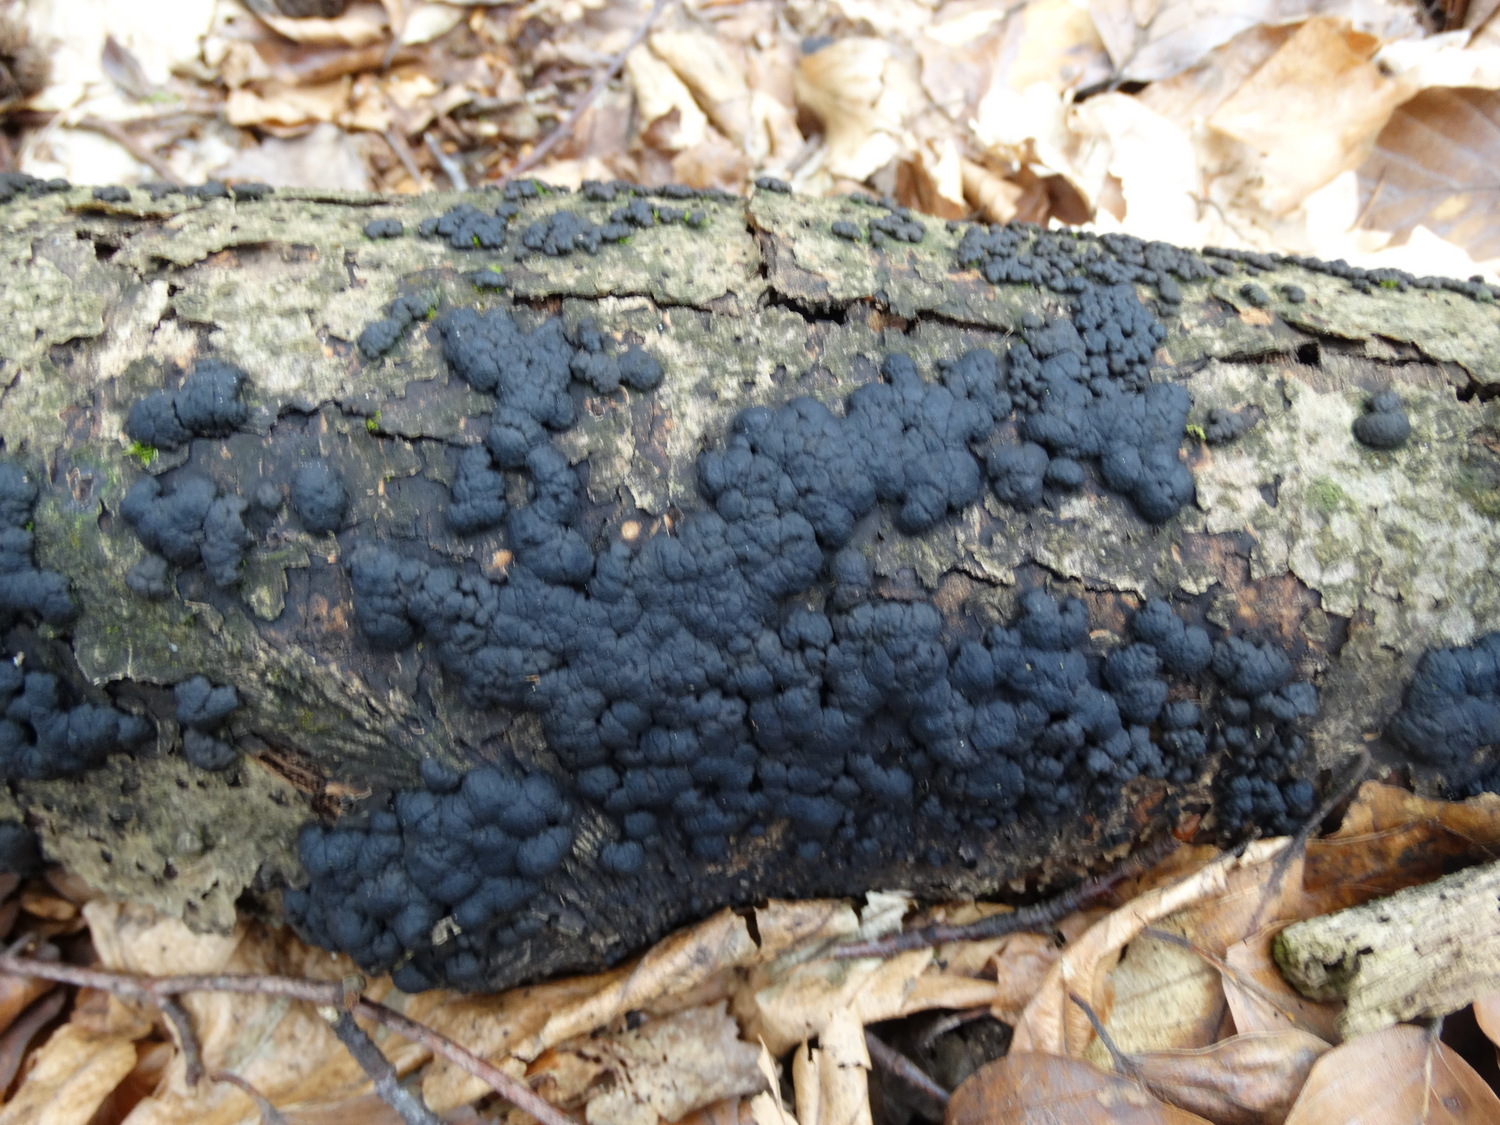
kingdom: Fungi
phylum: Ascomycota
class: Sordariomycetes
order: Xylariales
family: Hypoxylaceae
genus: Jackrogersella
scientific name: Jackrogersella cohaerens
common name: sammenflydende kulbær
